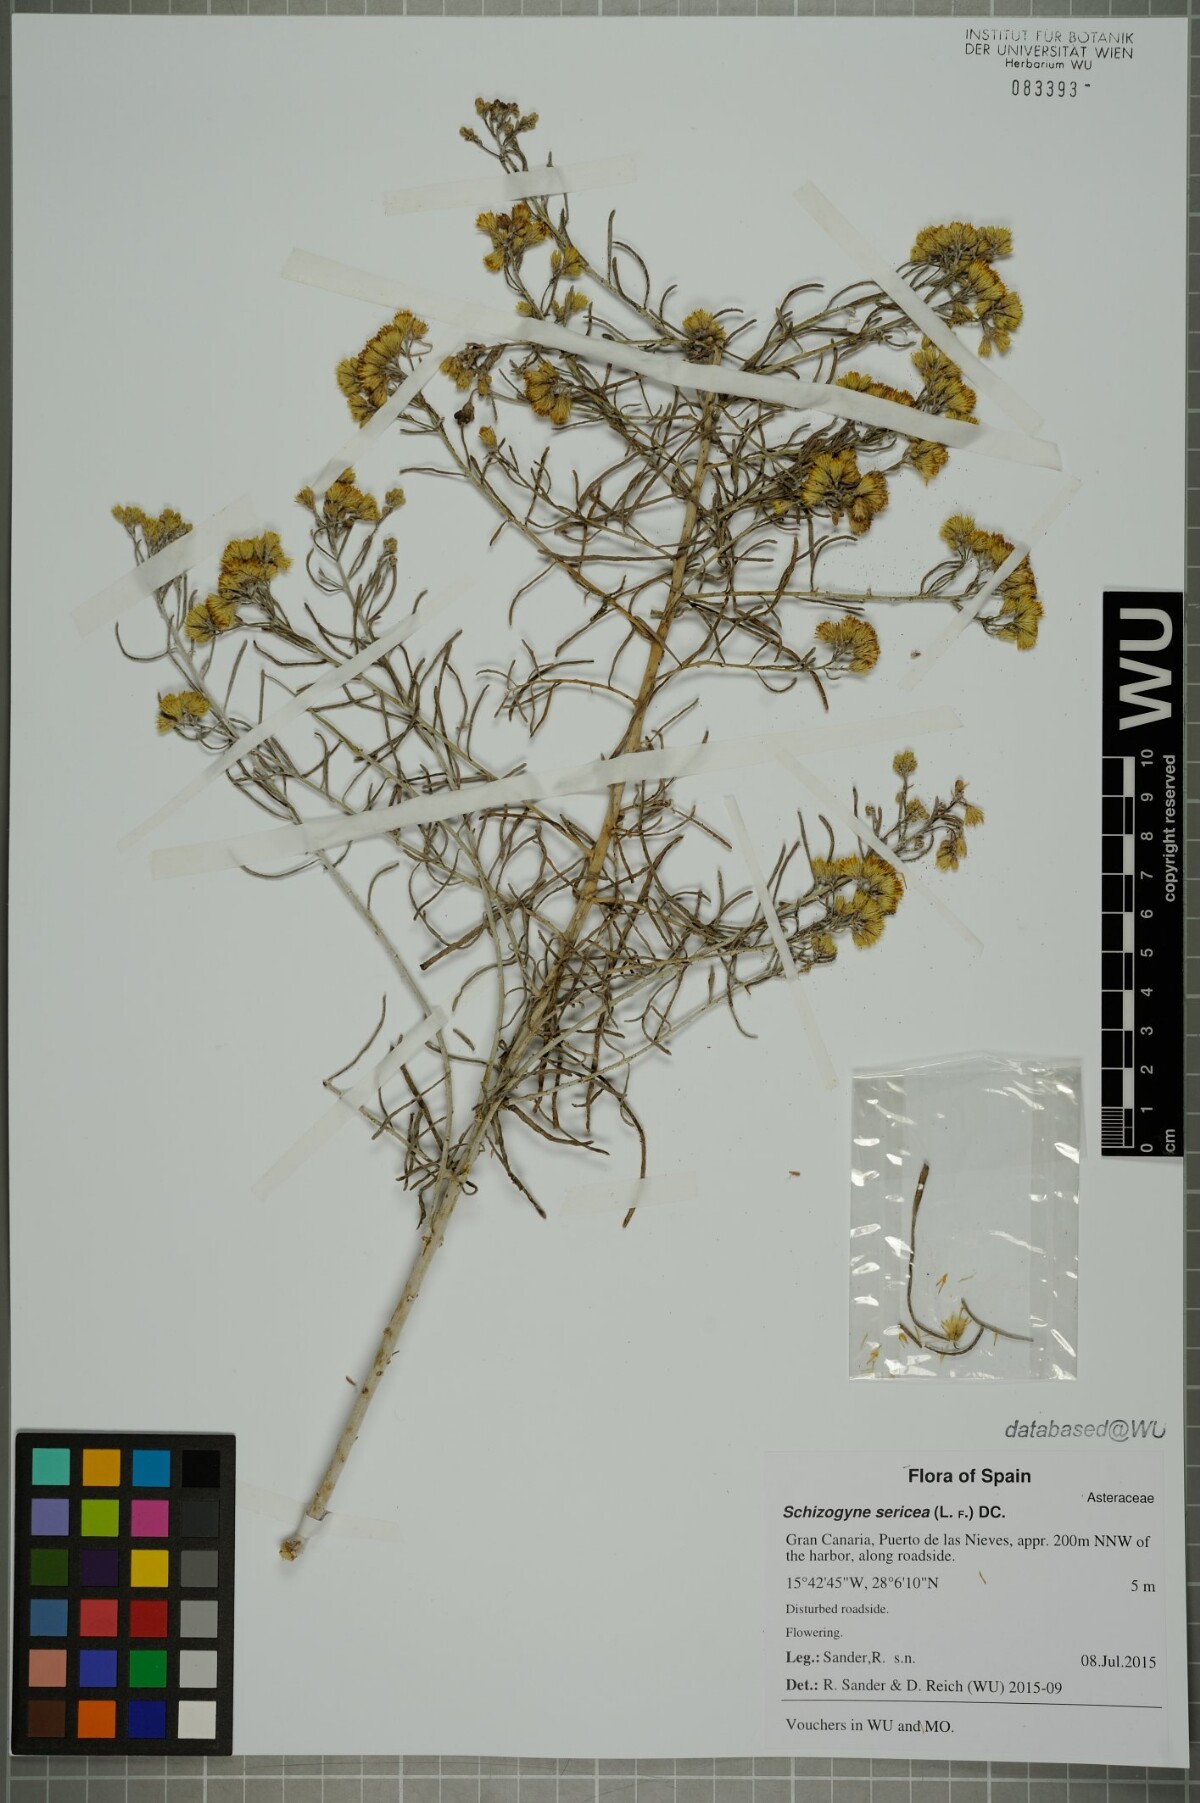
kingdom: Plantae
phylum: Tracheophyta
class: Magnoliopsida
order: Asterales
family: Asteraceae
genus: Schizogyne
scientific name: Schizogyne sericea
